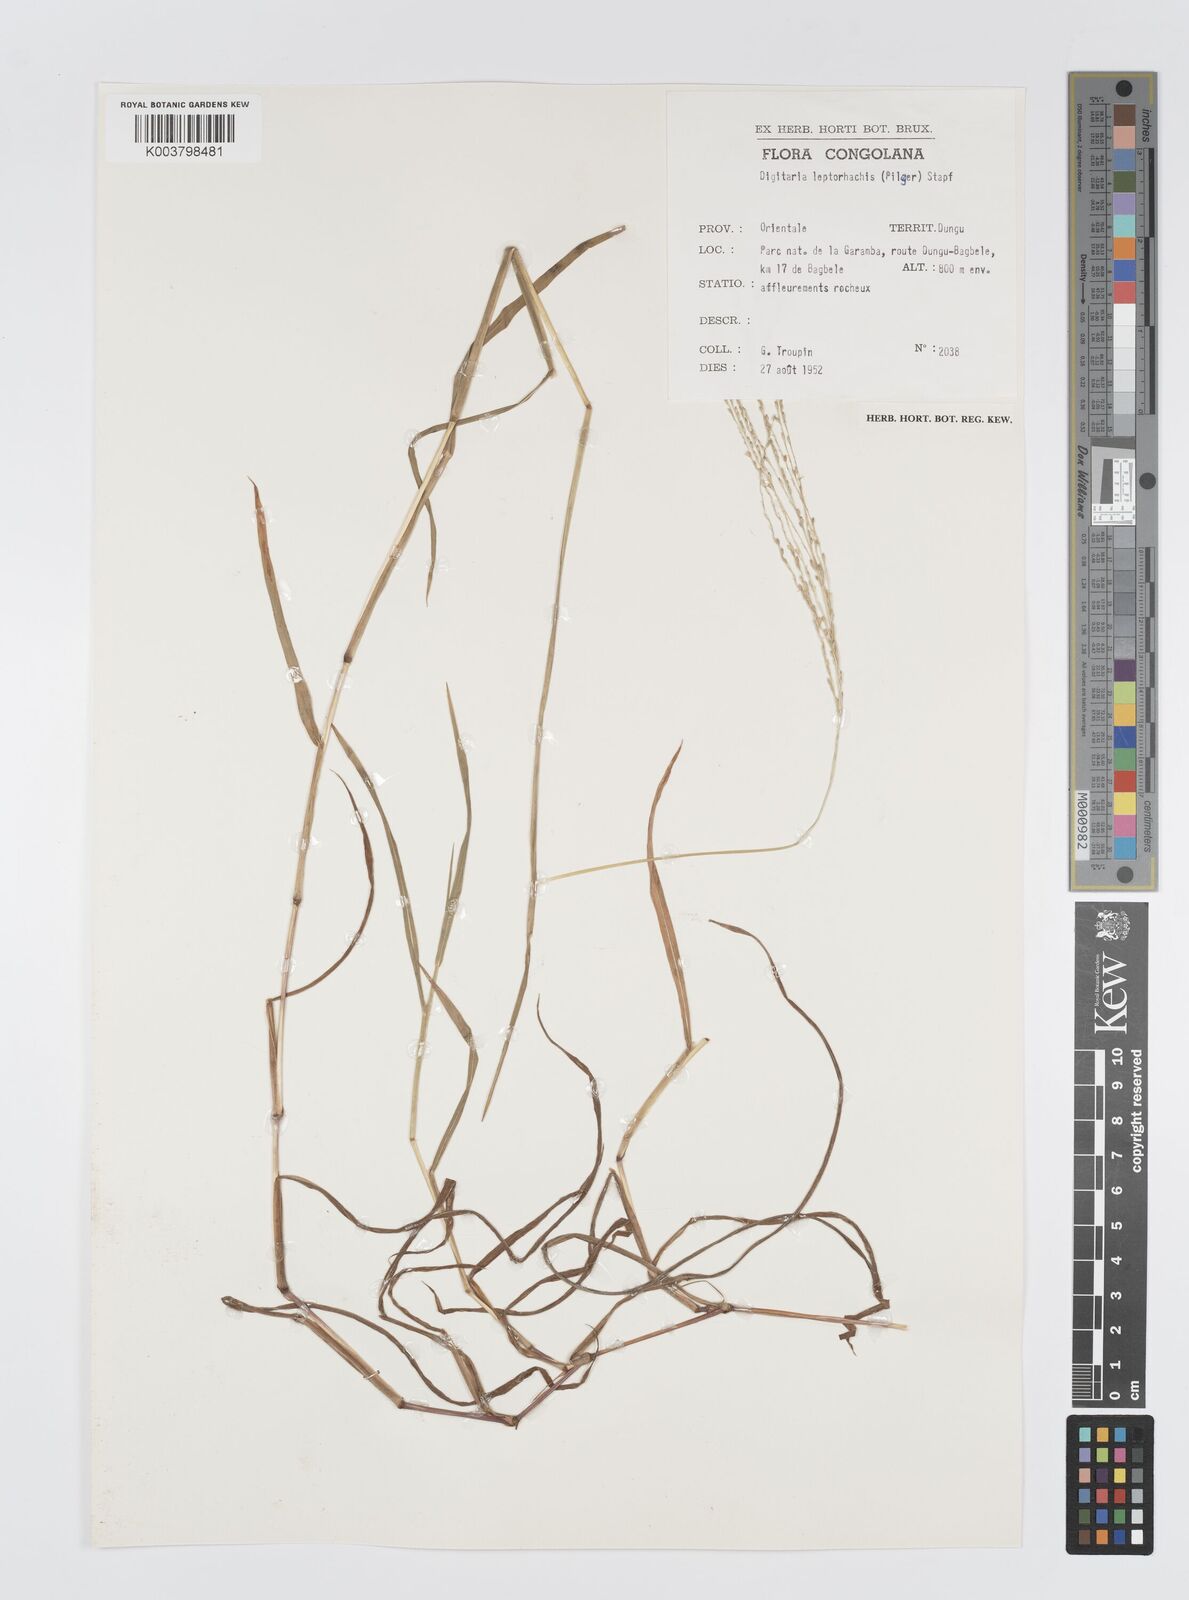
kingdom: Plantae
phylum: Tracheophyta
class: Liliopsida
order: Poales
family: Poaceae
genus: Digitaria
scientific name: Digitaria leptorhachis
